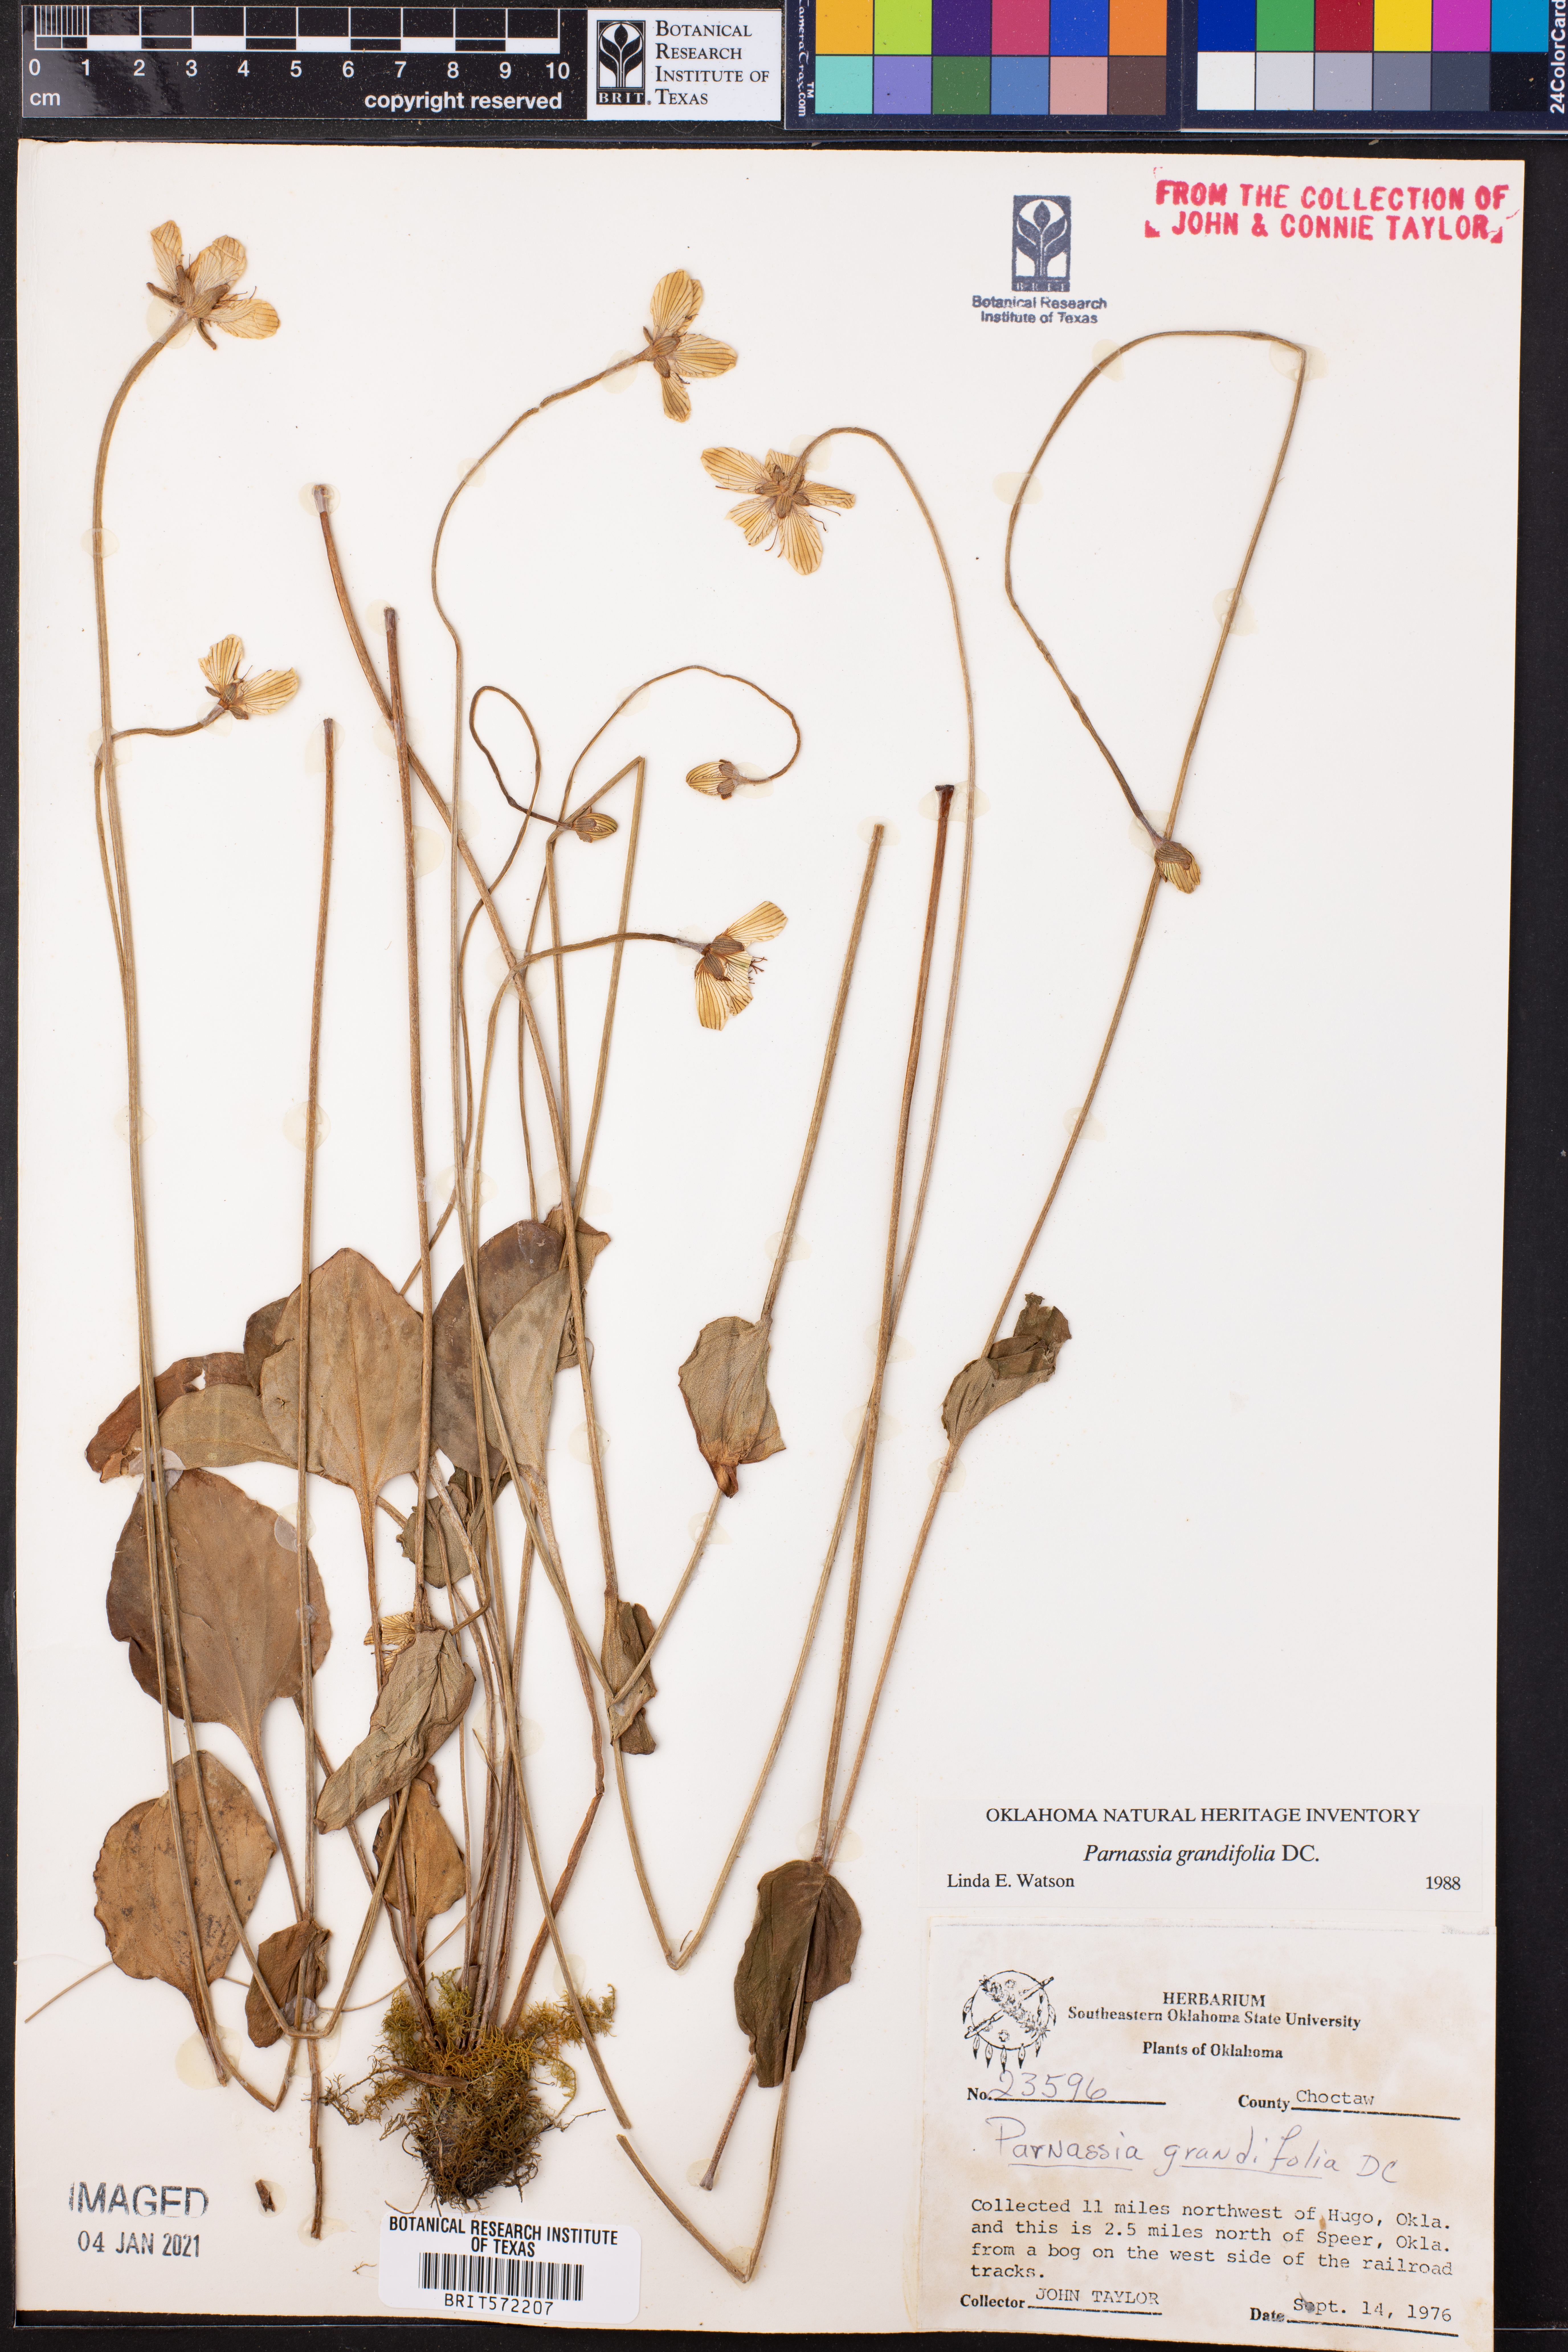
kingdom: Plantae
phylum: Tracheophyta
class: Magnoliopsida
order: Celastrales
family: Parnassiaceae
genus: Parnassia
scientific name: Parnassia grandifolia
